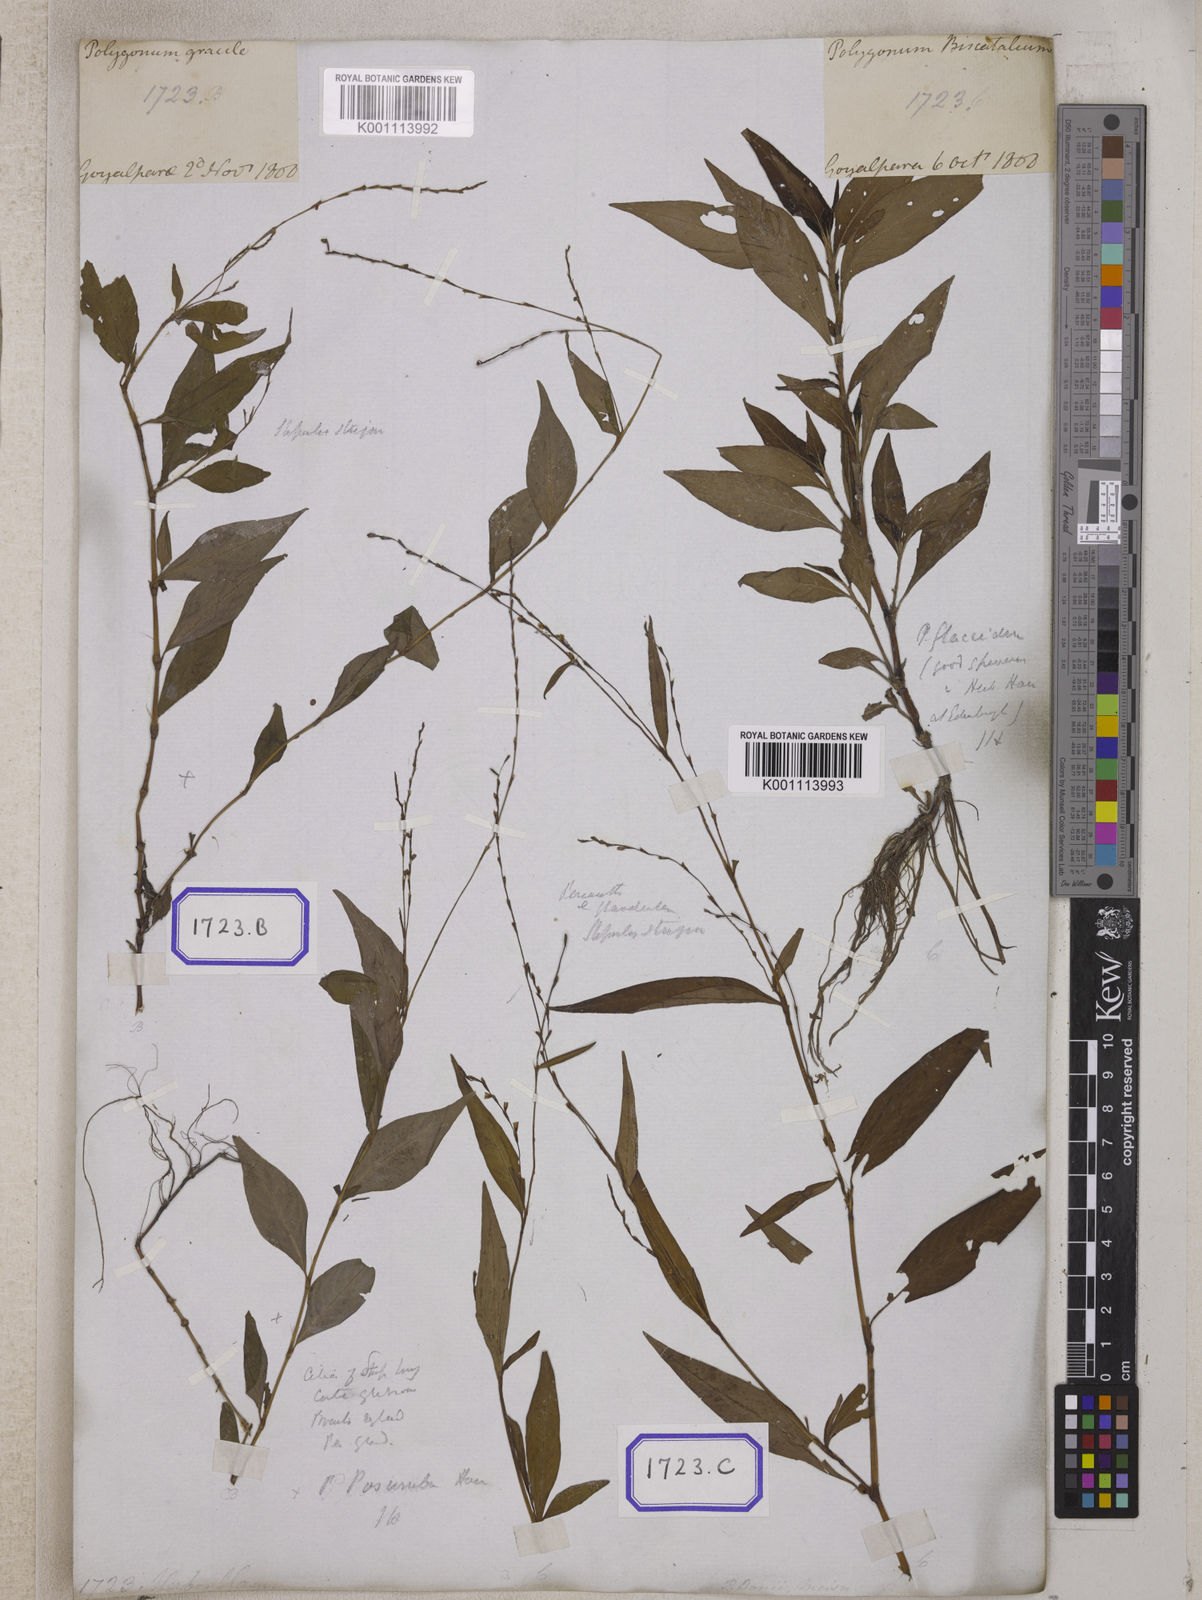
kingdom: Plantae
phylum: Tracheophyta
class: Magnoliopsida
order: Caryophyllales
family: Polygonaceae
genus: Persicaria
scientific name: Persicaria pubescens
